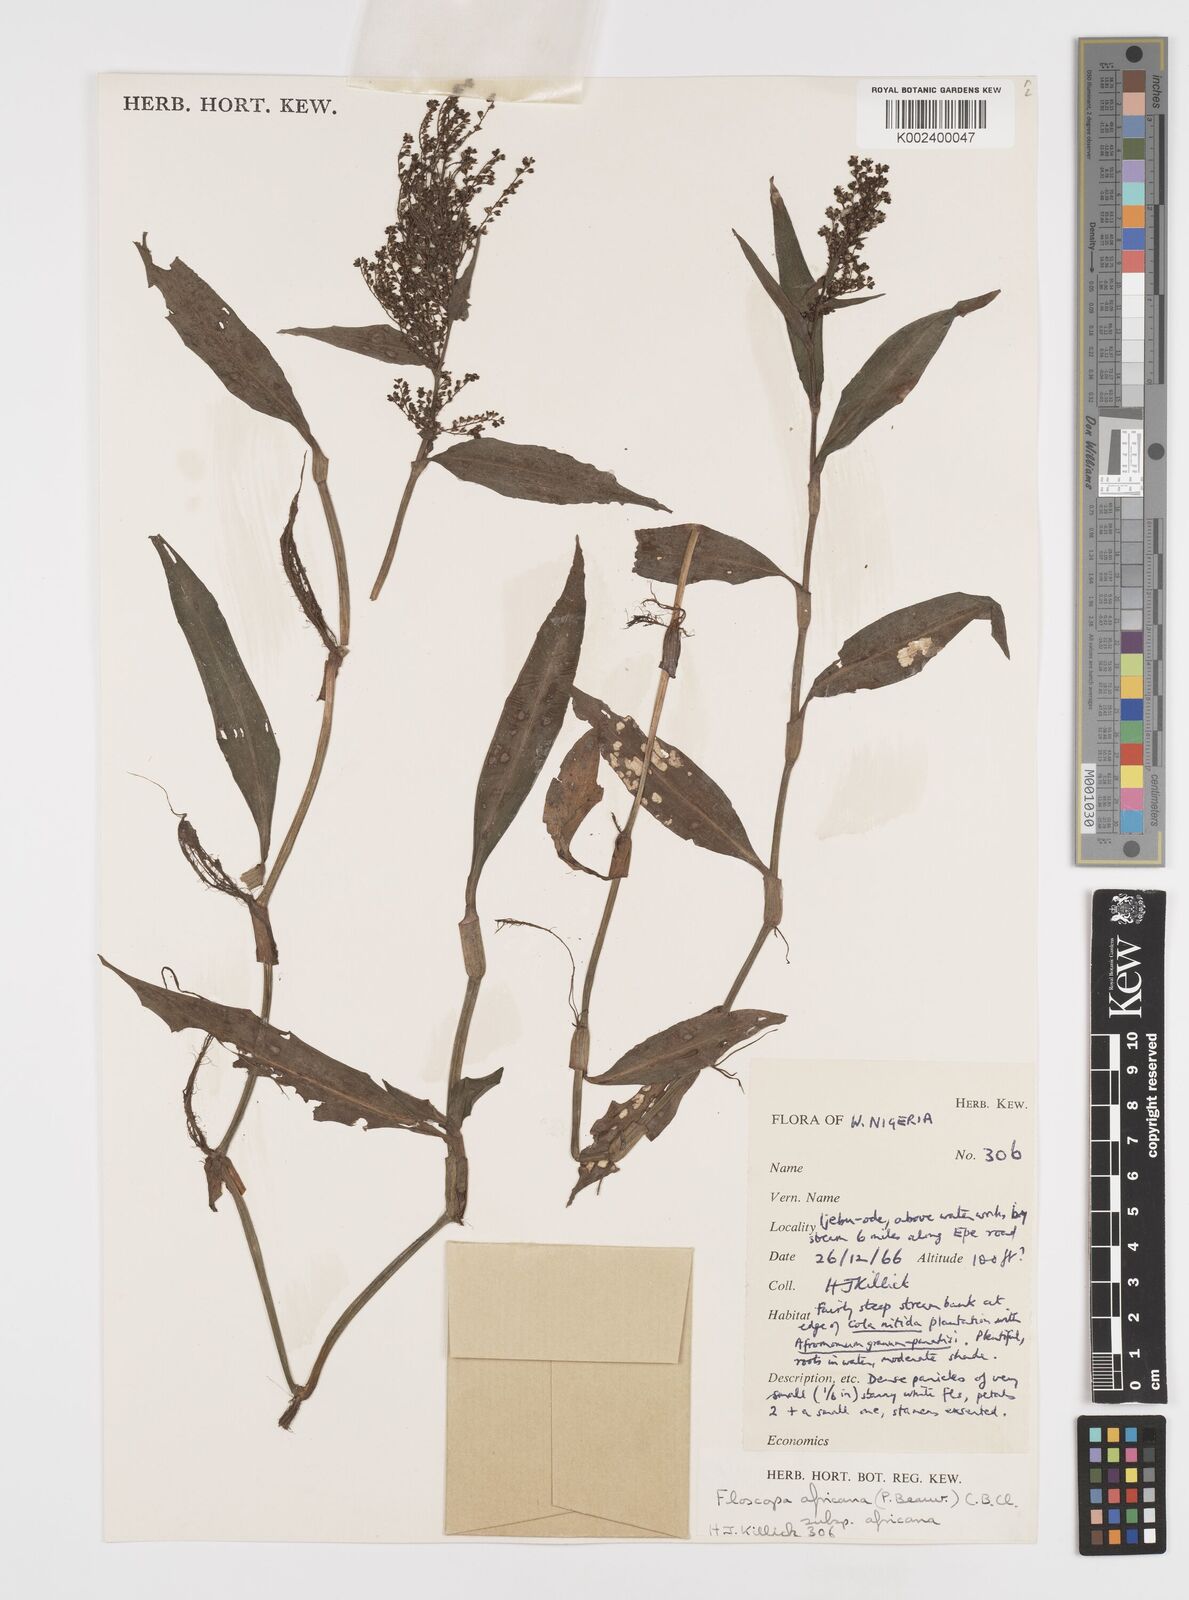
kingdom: Plantae
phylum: Tracheophyta
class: Liliopsida
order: Commelinales
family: Commelinaceae
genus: Floscopa
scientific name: Floscopa africana
